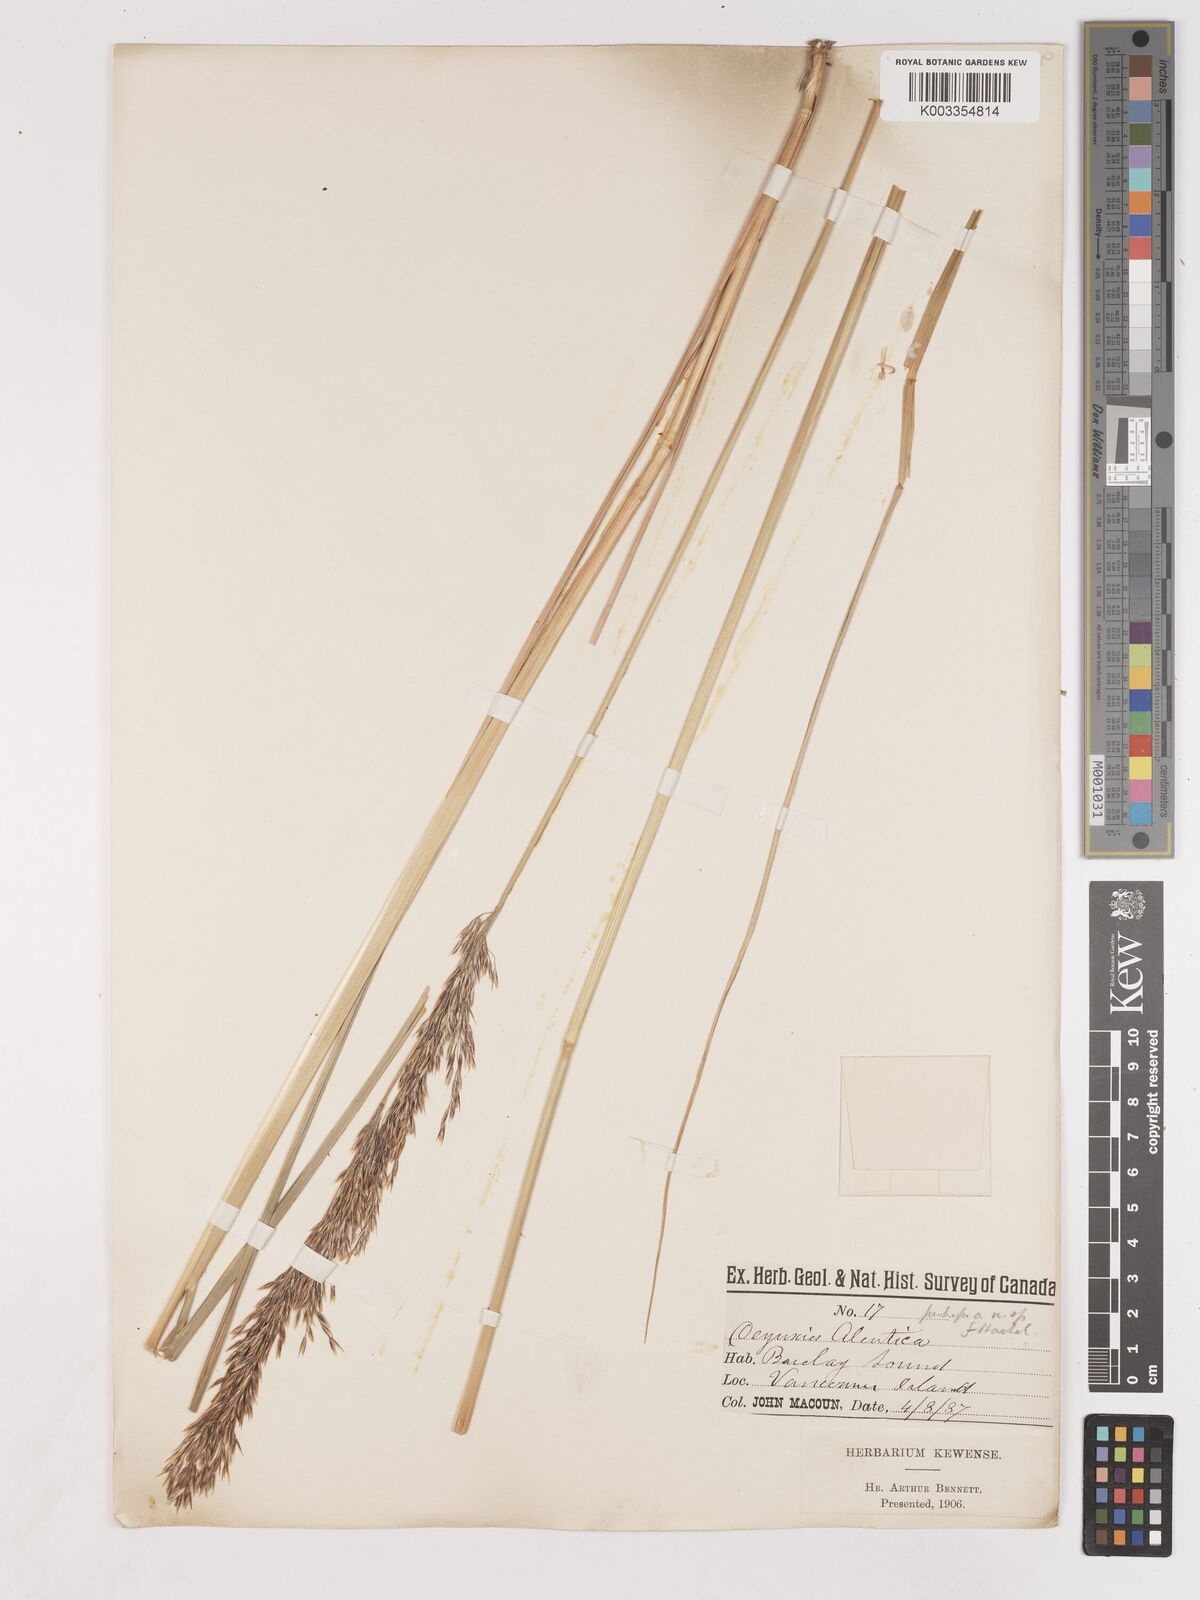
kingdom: Plantae
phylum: Tracheophyta
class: Liliopsida
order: Poales
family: Poaceae
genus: Calamagrostis
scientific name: Calamagrostis
